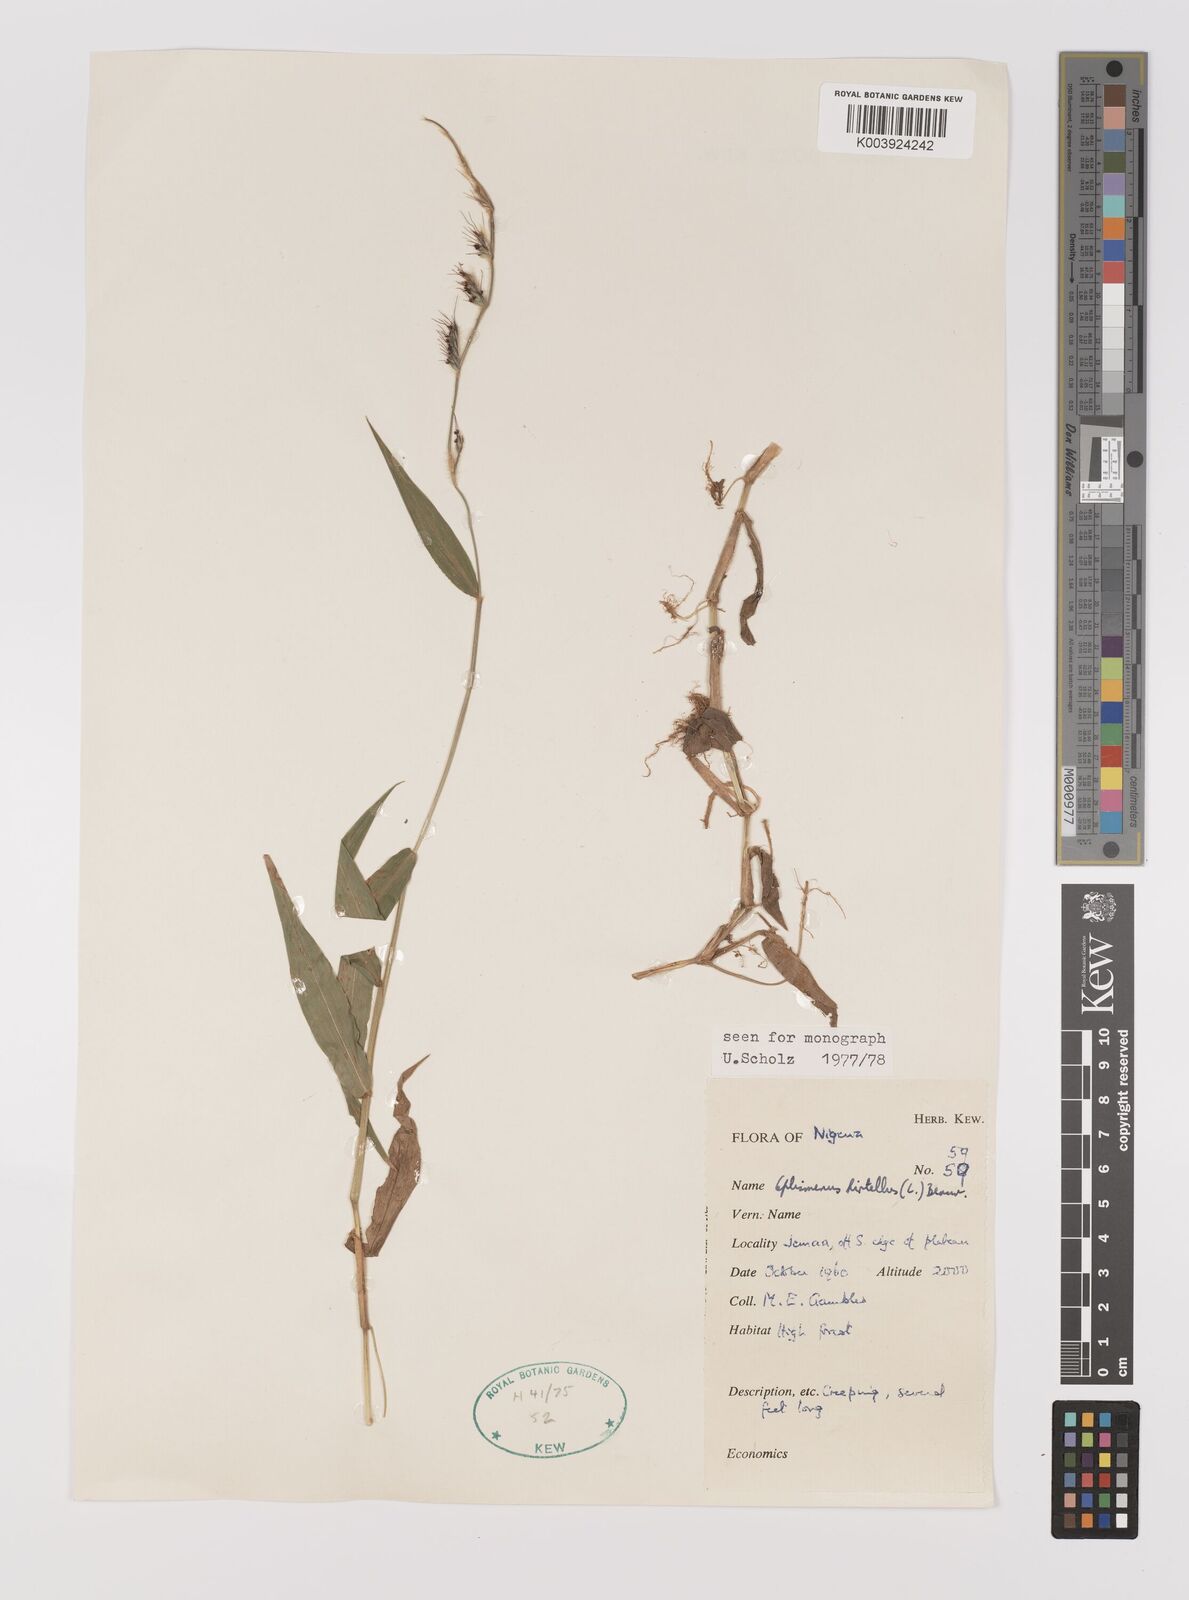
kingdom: Plantae
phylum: Tracheophyta
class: Liliopsida
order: Poales
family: Poaceae
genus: Oplismenus
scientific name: Oplismenus hirtellus
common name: Basketgrass
